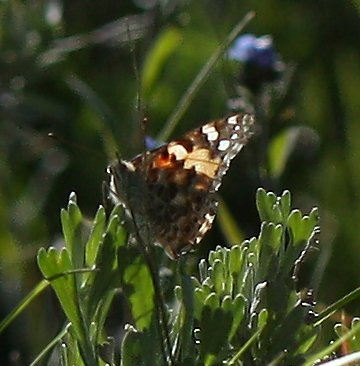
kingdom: Animalia
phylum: Arthropoda
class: Insecta
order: Lepidoptera
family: Nymphalidae
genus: Vanessa
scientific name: Vanessa cardui
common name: Painted Lady
